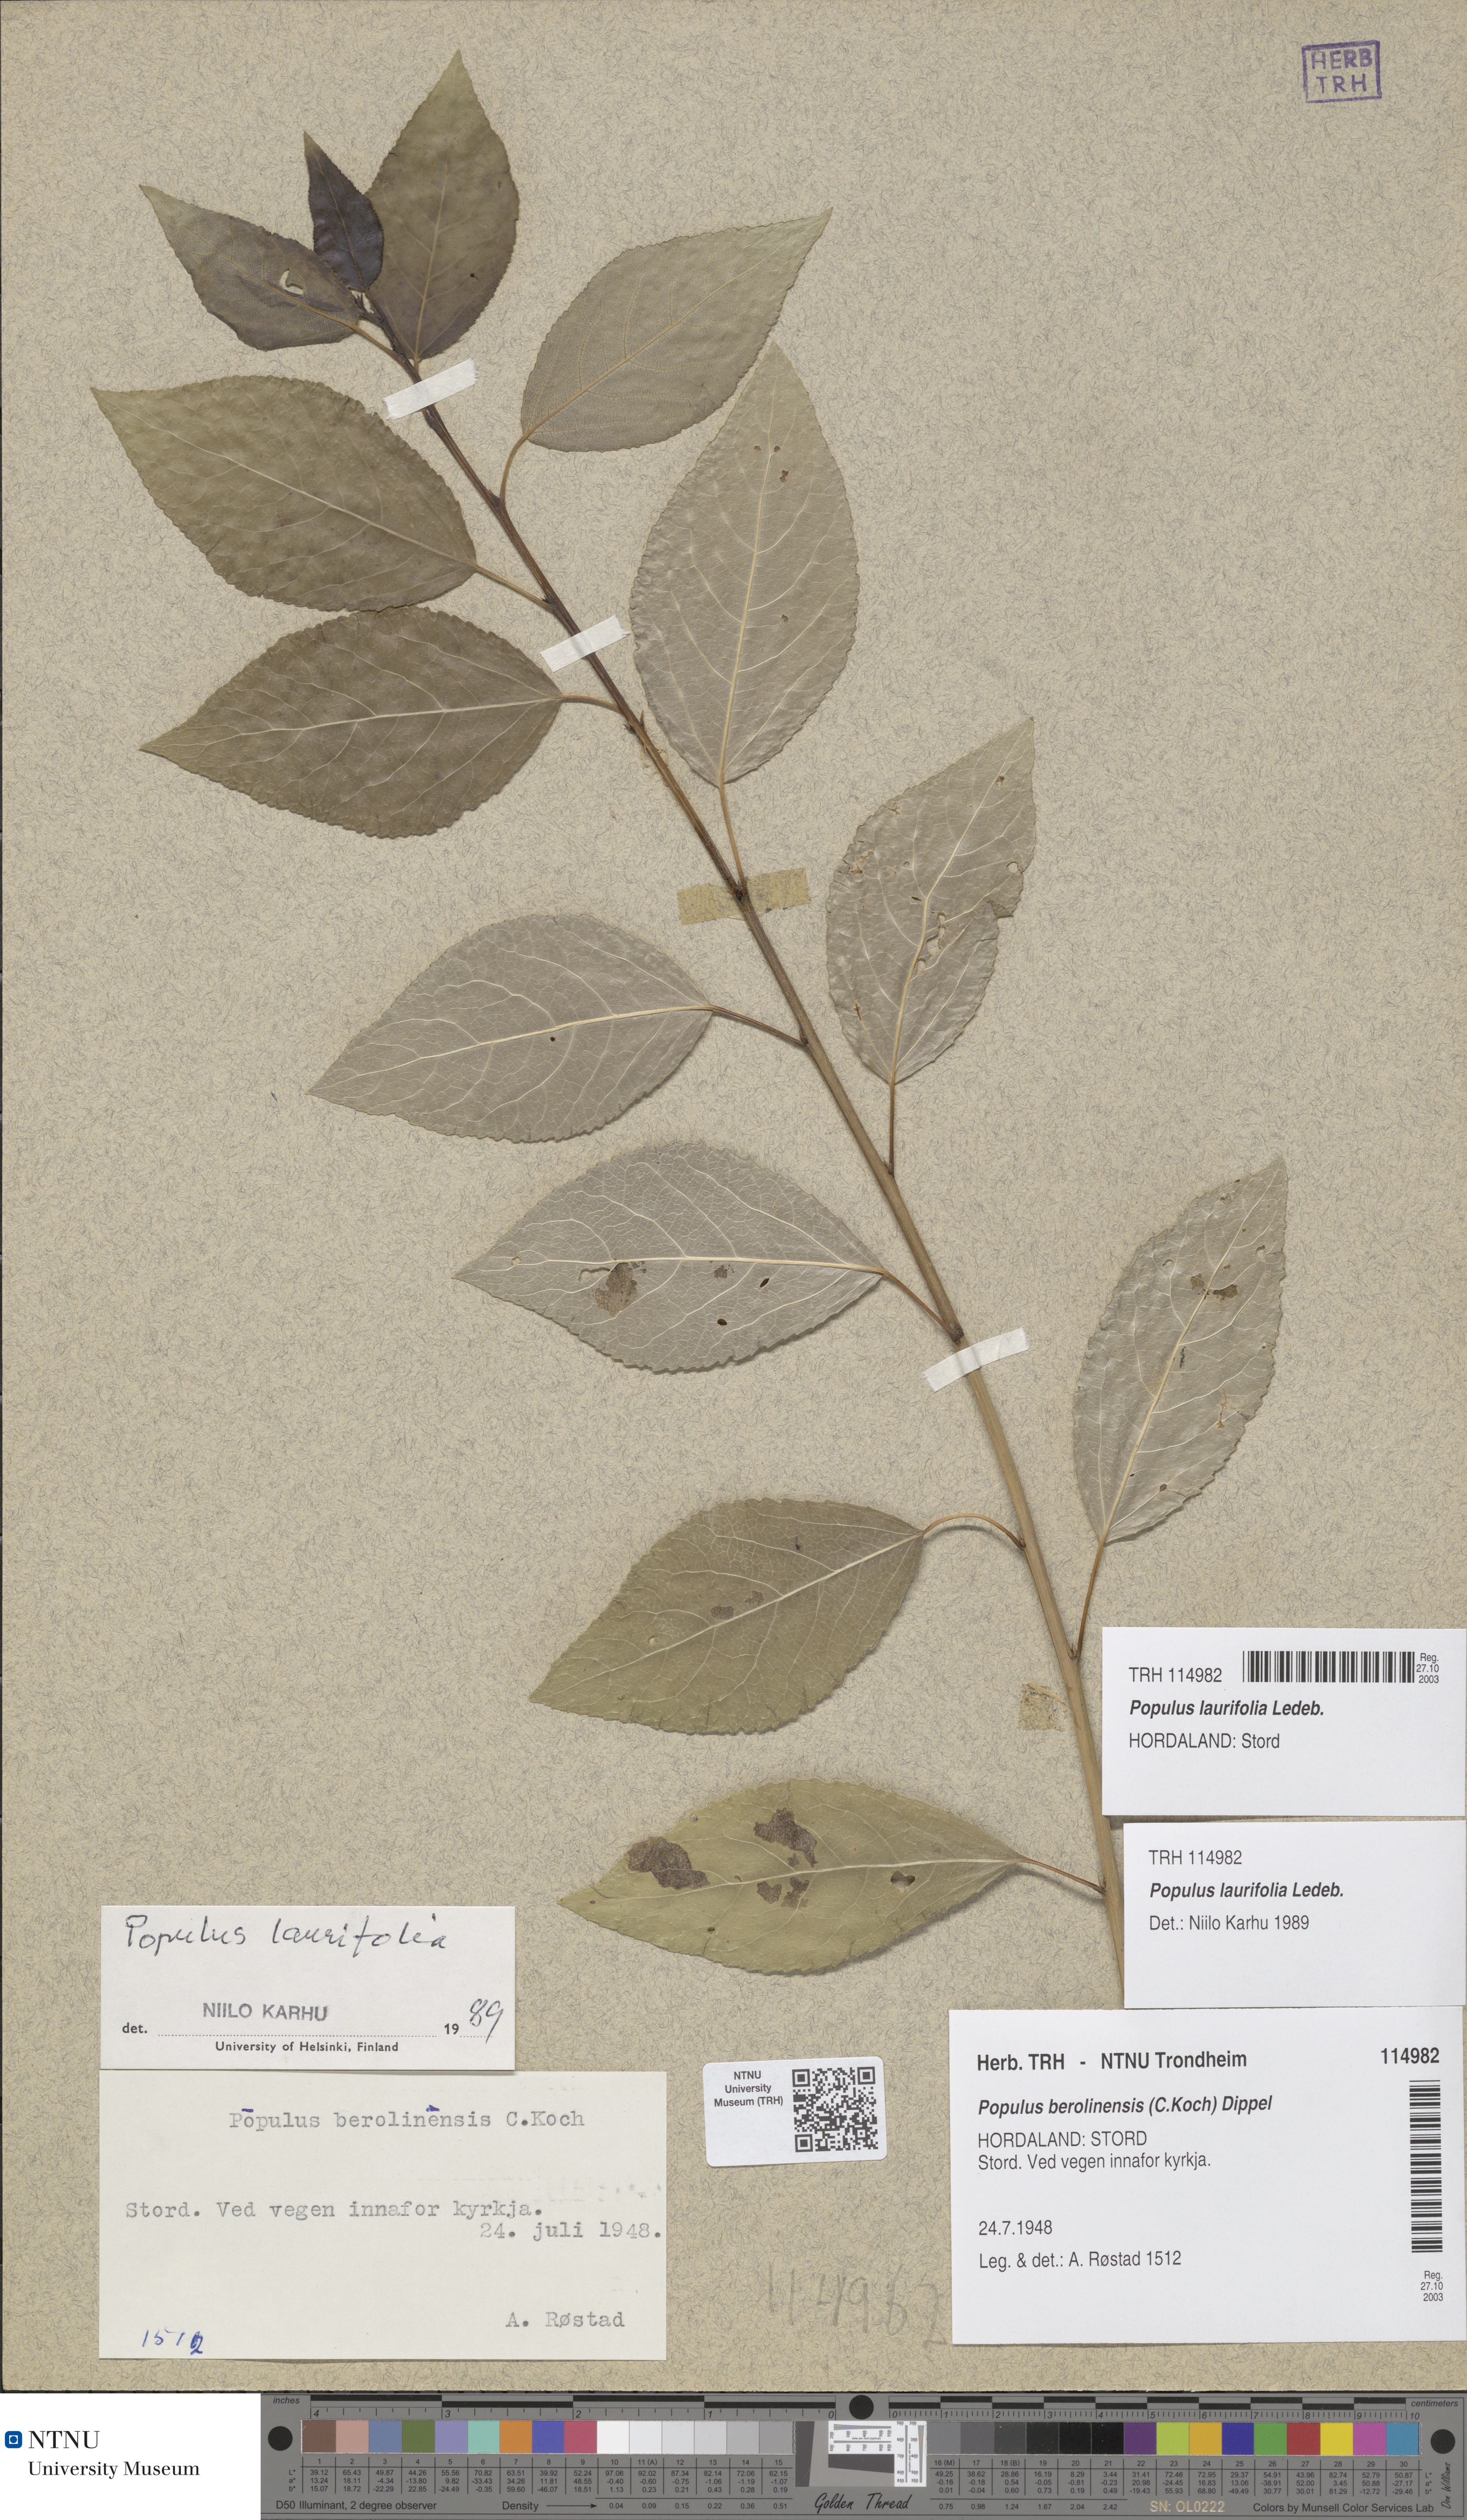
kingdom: Plantae
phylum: Tracheophyta
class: Magnoliopsida
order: Malpighiales
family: Salicaceae
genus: Populus
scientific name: Populus laurifolia
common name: Laurel-leaf poplar
